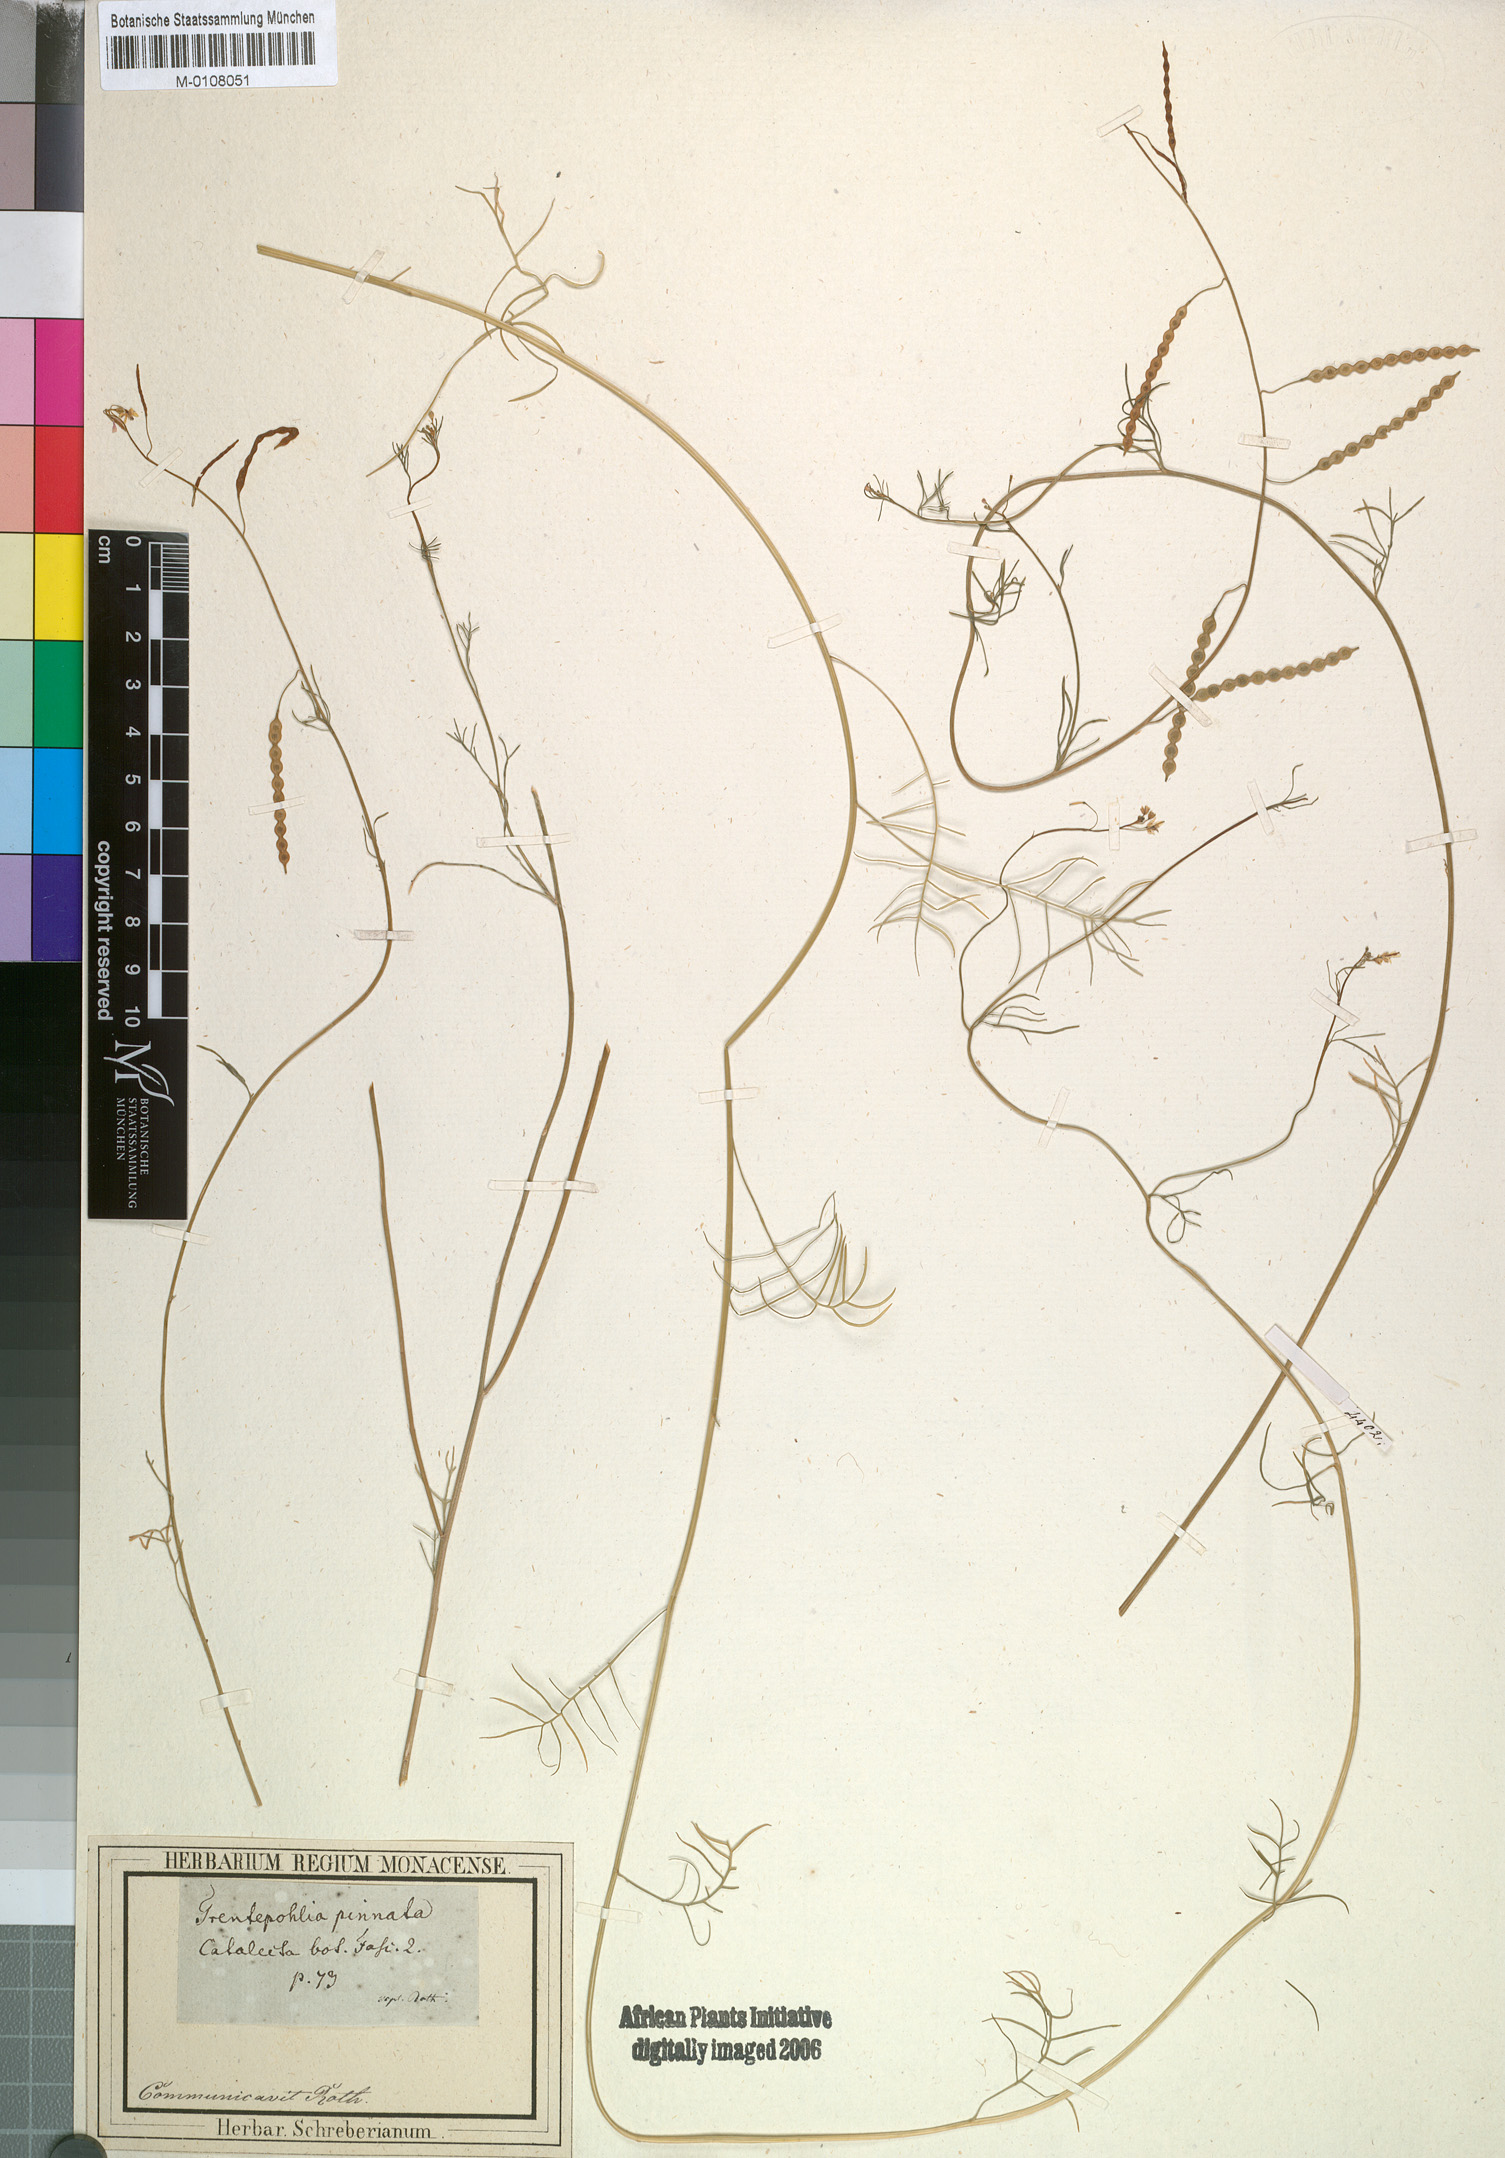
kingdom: Plantae
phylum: Tracheophyta
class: Magnoliopsida
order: Brassicales
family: Brassicaceae
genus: Heliophila
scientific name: Heliophila pendula
